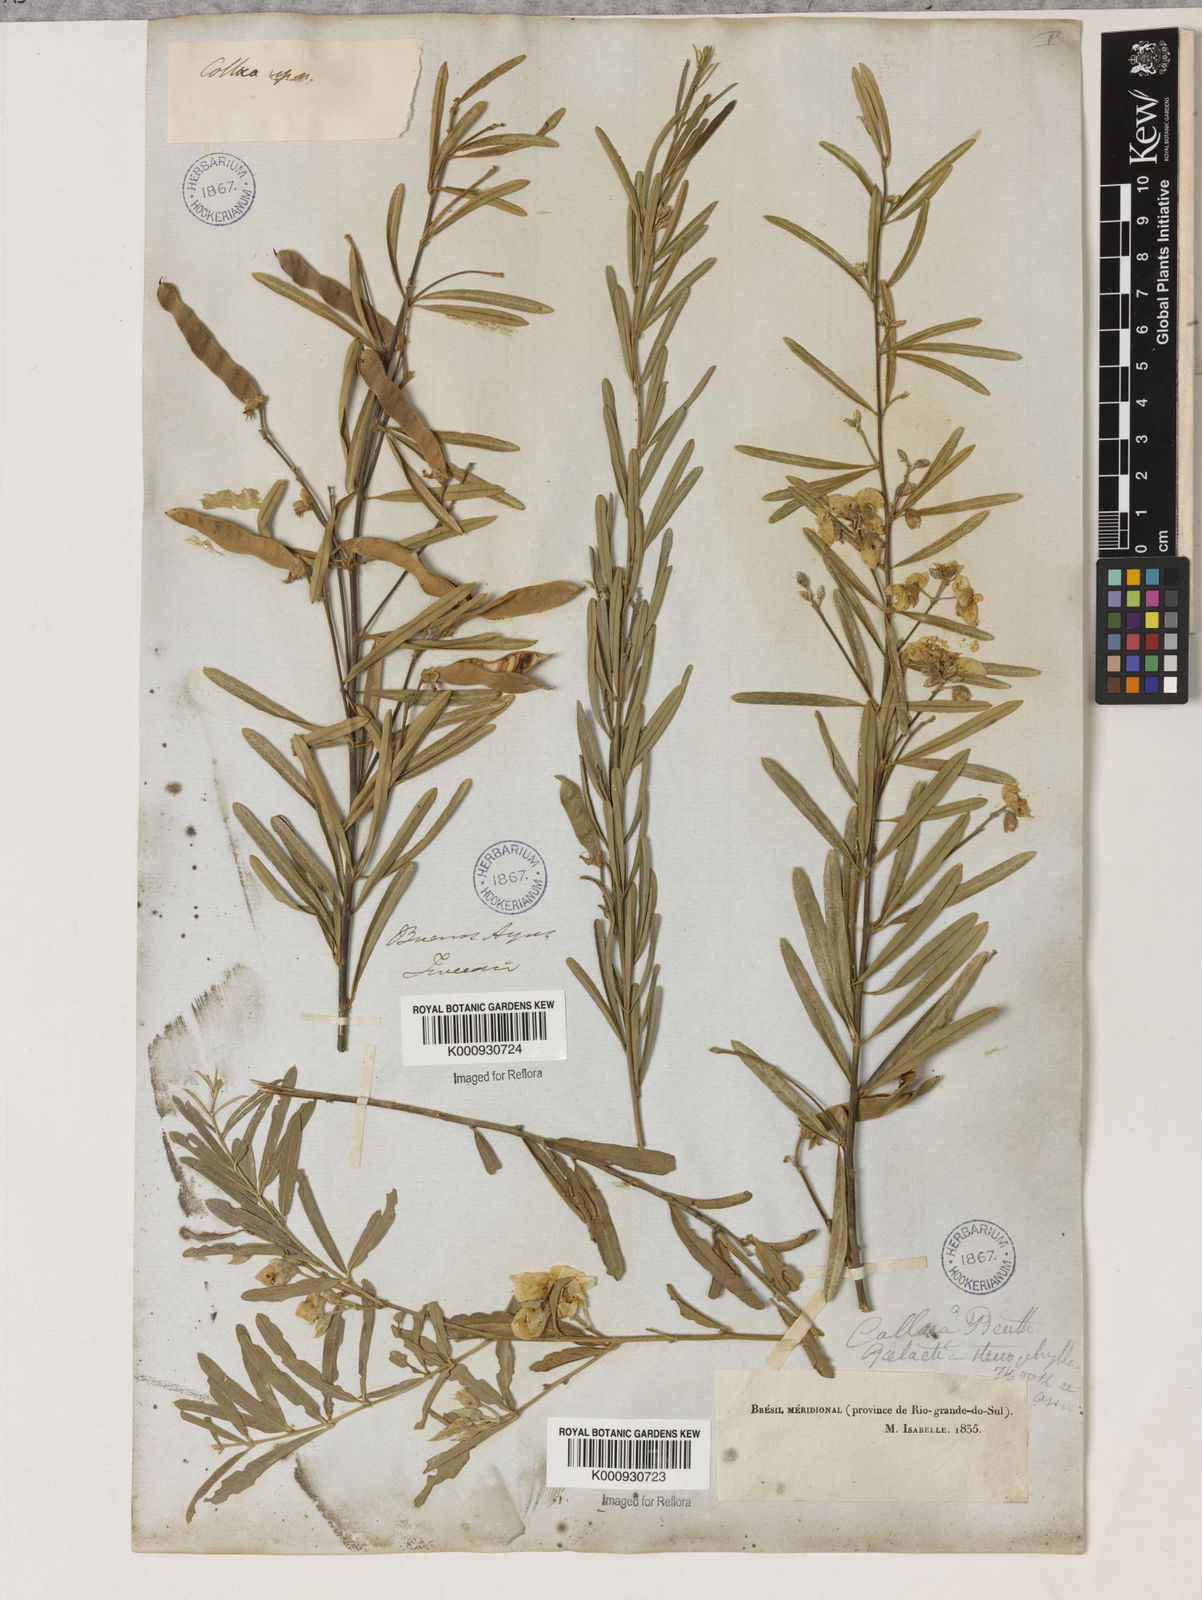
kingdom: Plantae
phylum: Tracheophyta
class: Liliopsida
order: Asparagales
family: Orchidaceae
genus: Pelexia
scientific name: Pelexia
